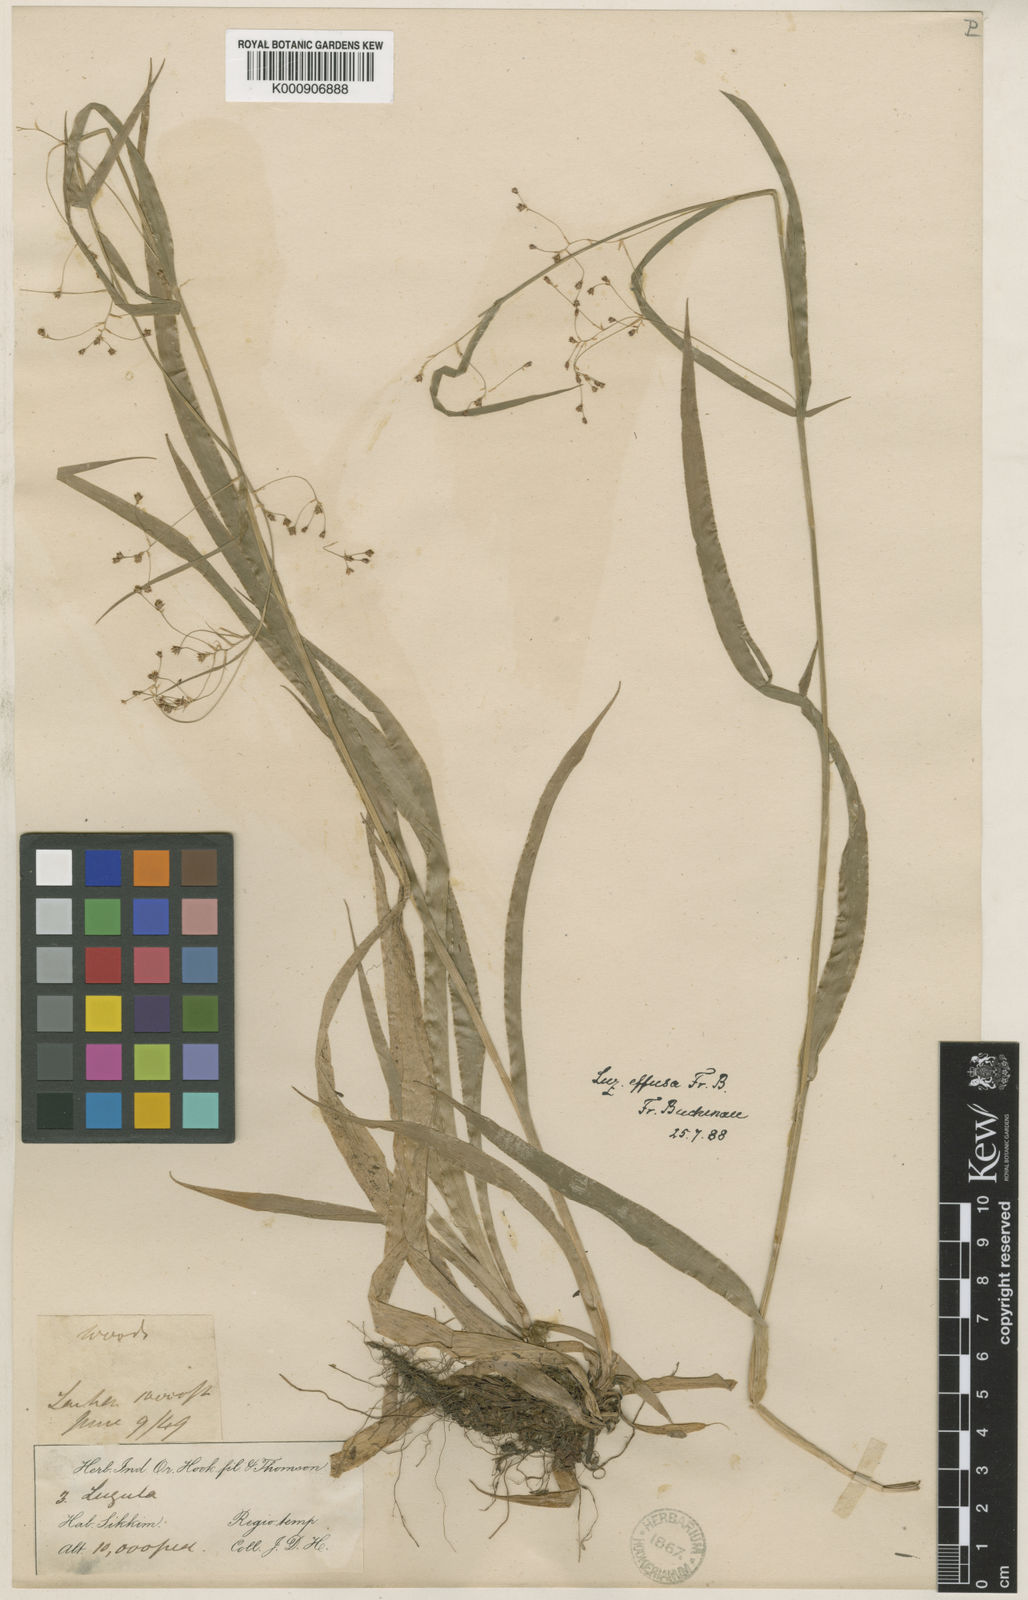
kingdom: Plantae
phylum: Tracheophyta
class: Liliopsida
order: Poales
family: Juncaceae
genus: Luzula
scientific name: Luzula effusa
